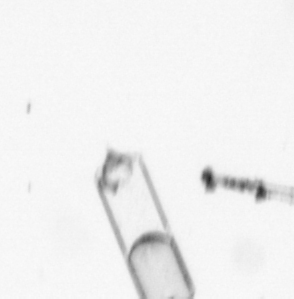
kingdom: Chromista
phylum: Ochrophyta
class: Bacillariophyceae
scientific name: Bacillariophyceae
